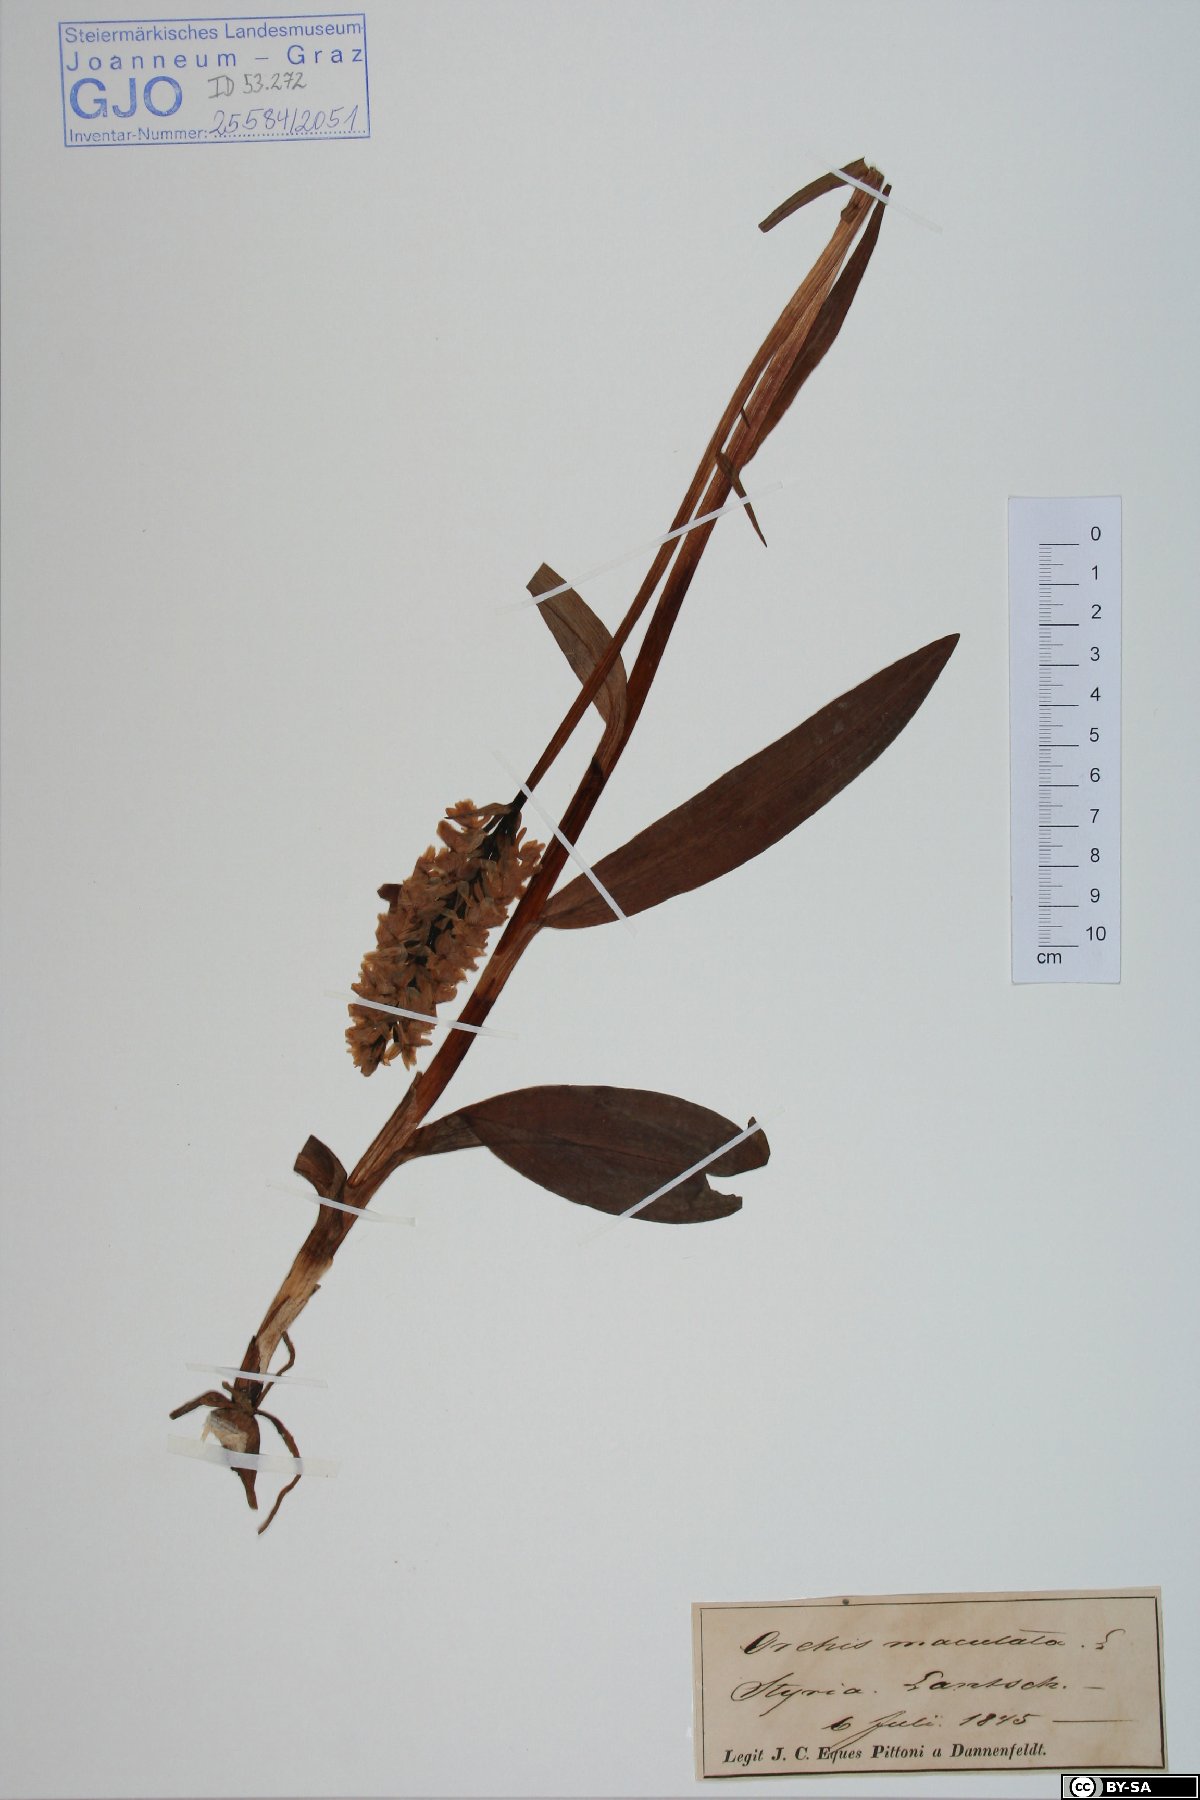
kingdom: Plantae
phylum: Tracheophyta
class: Liliopsida
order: Asparagales
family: Orchidaceae
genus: Dactylorhiza
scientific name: Dactylorhiza maculata
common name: Heath spotted-orchid
